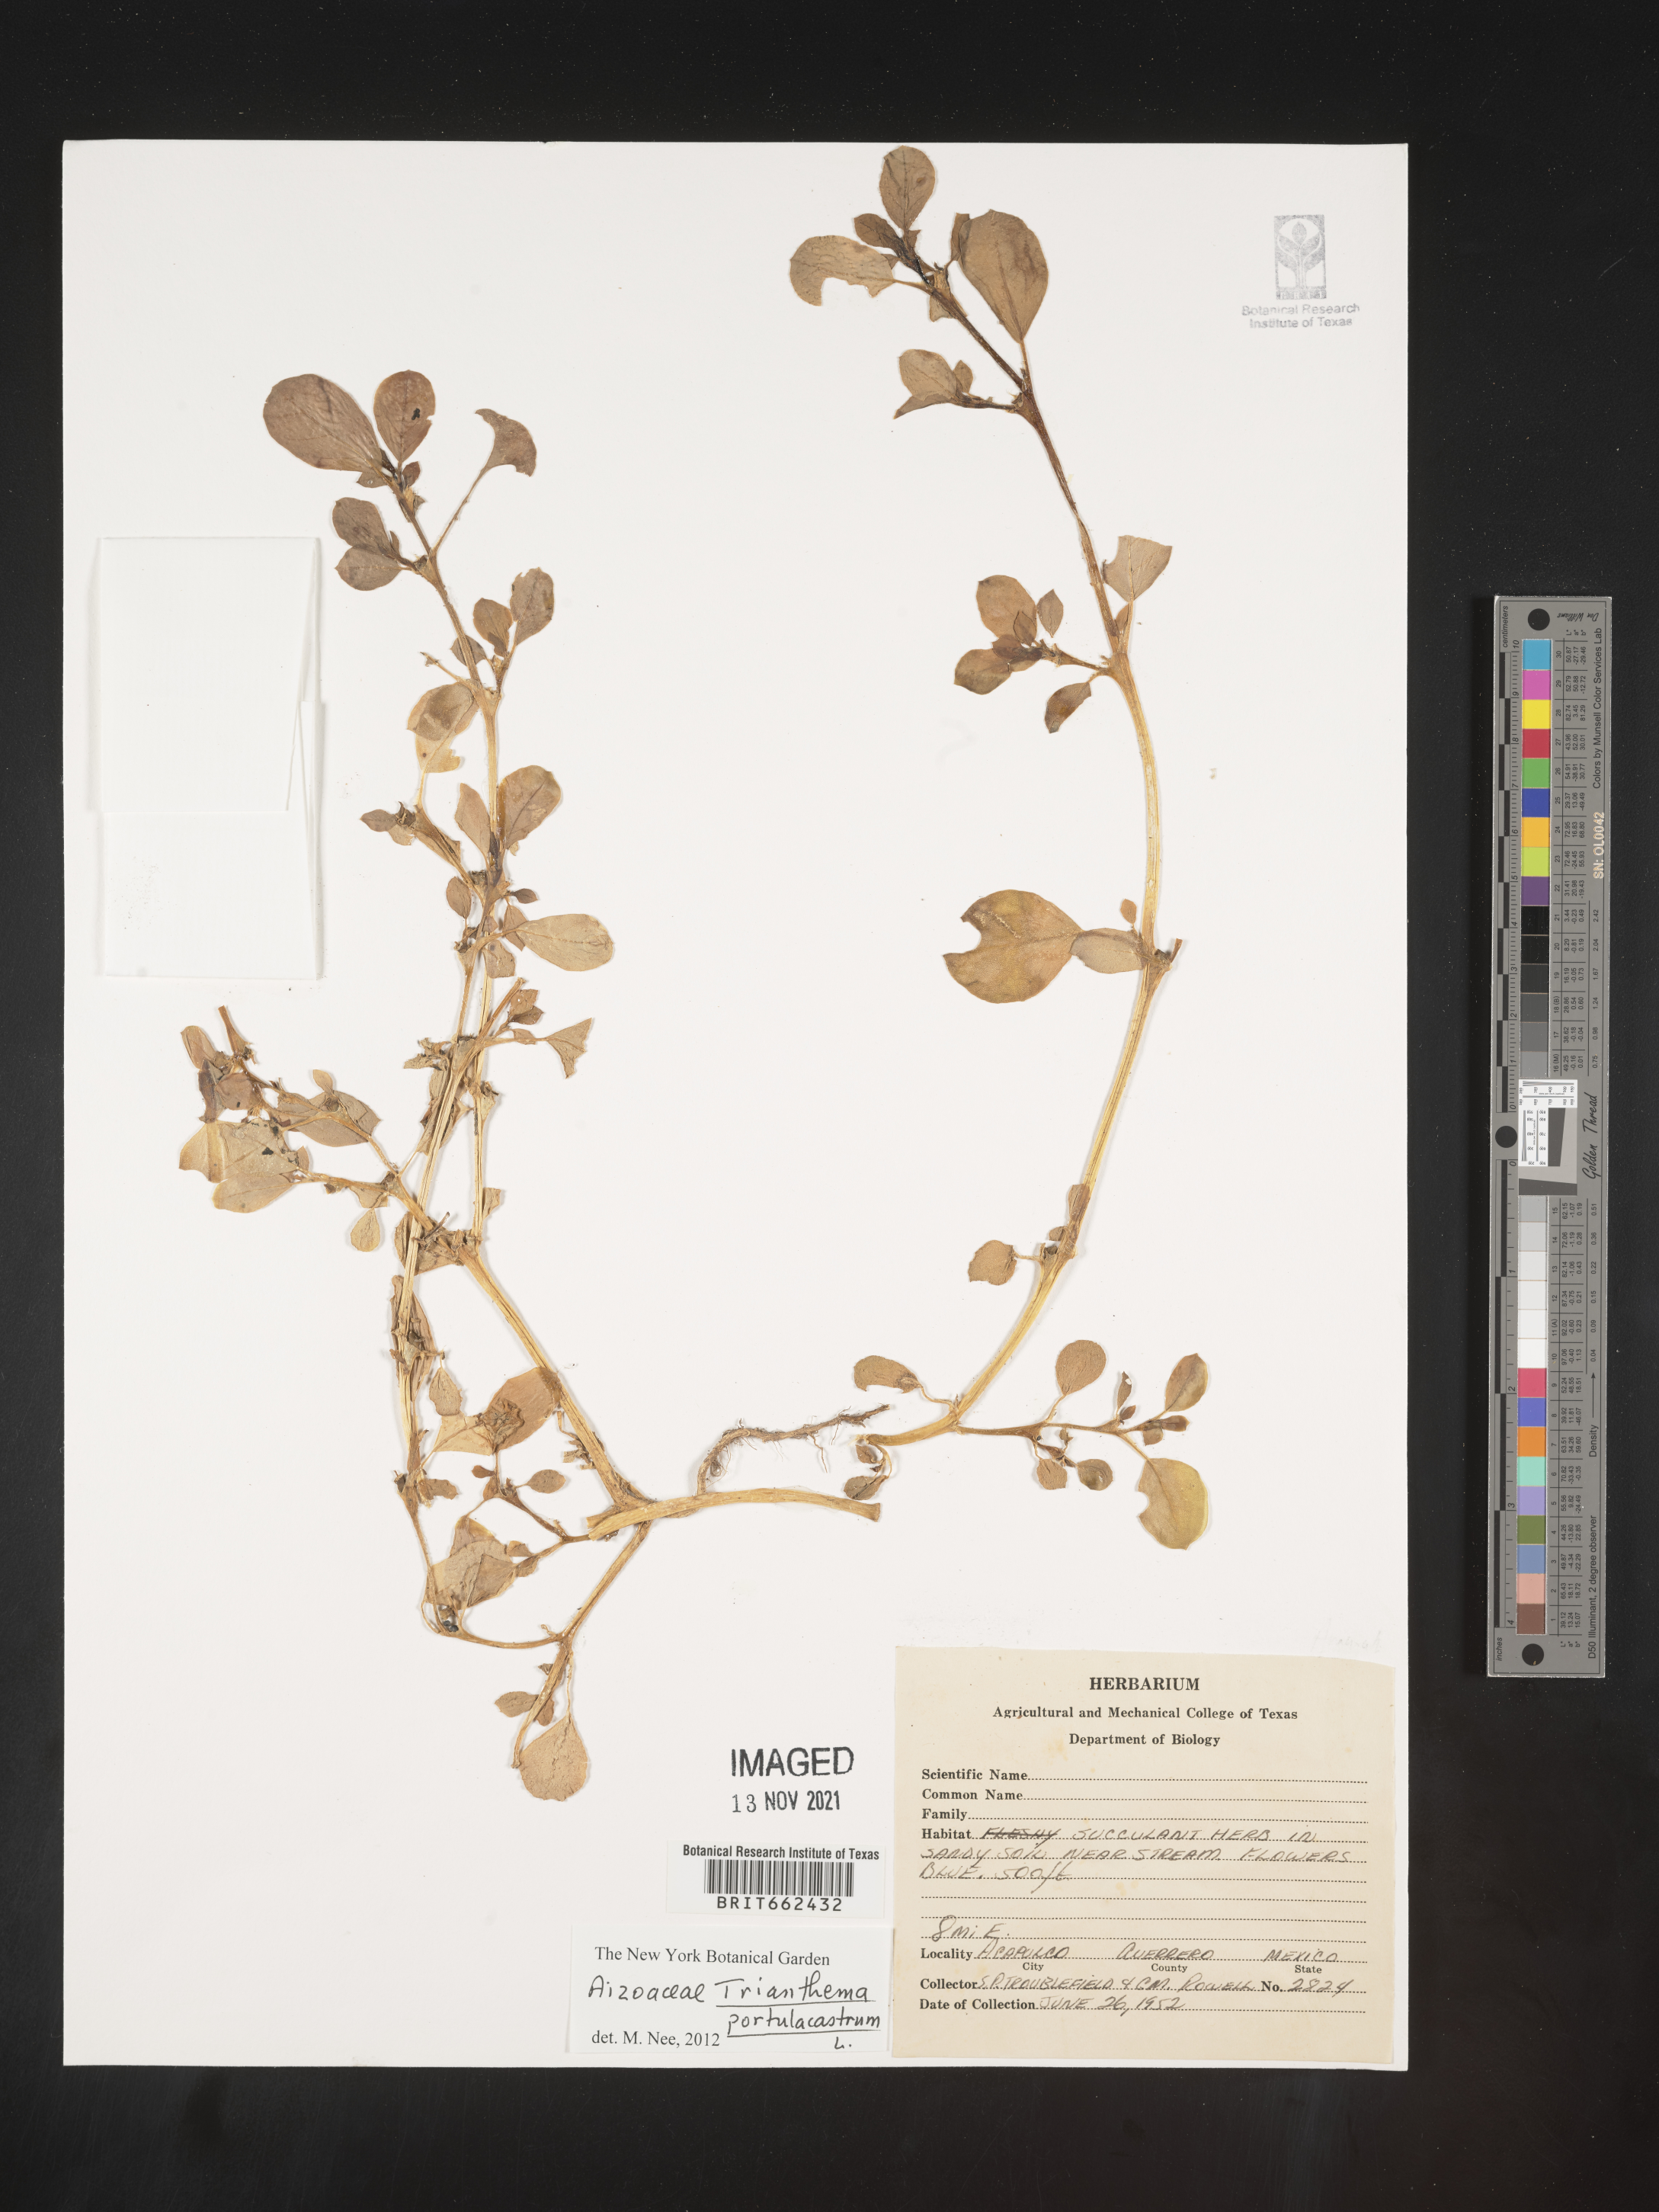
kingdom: Plantae
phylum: Tracheophyta
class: Magnoliopsida
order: Caryophyllales
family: Aizoaceae
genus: Trianthema
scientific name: Trianthema
